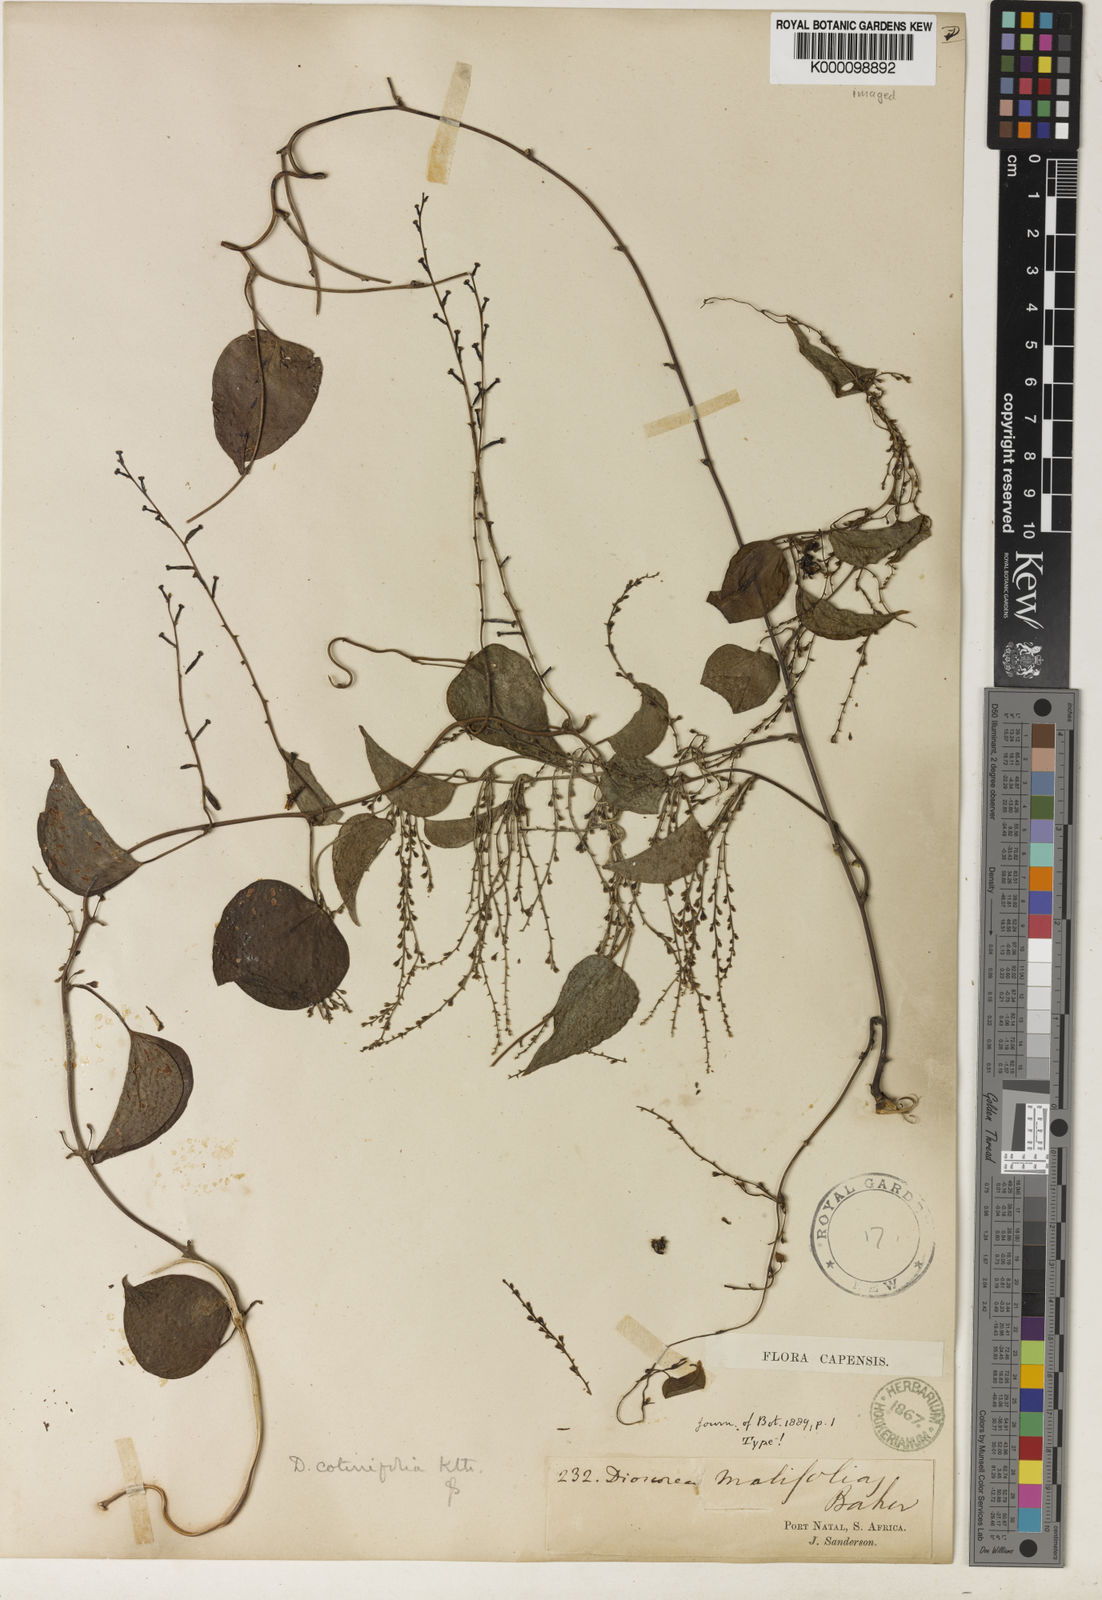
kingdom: Plantae
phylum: Tracheophyta
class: Liliopsida
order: Dioscoreales
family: Dioscoreaceae
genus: Dioscorea
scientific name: Dioscorea cotinifolia
